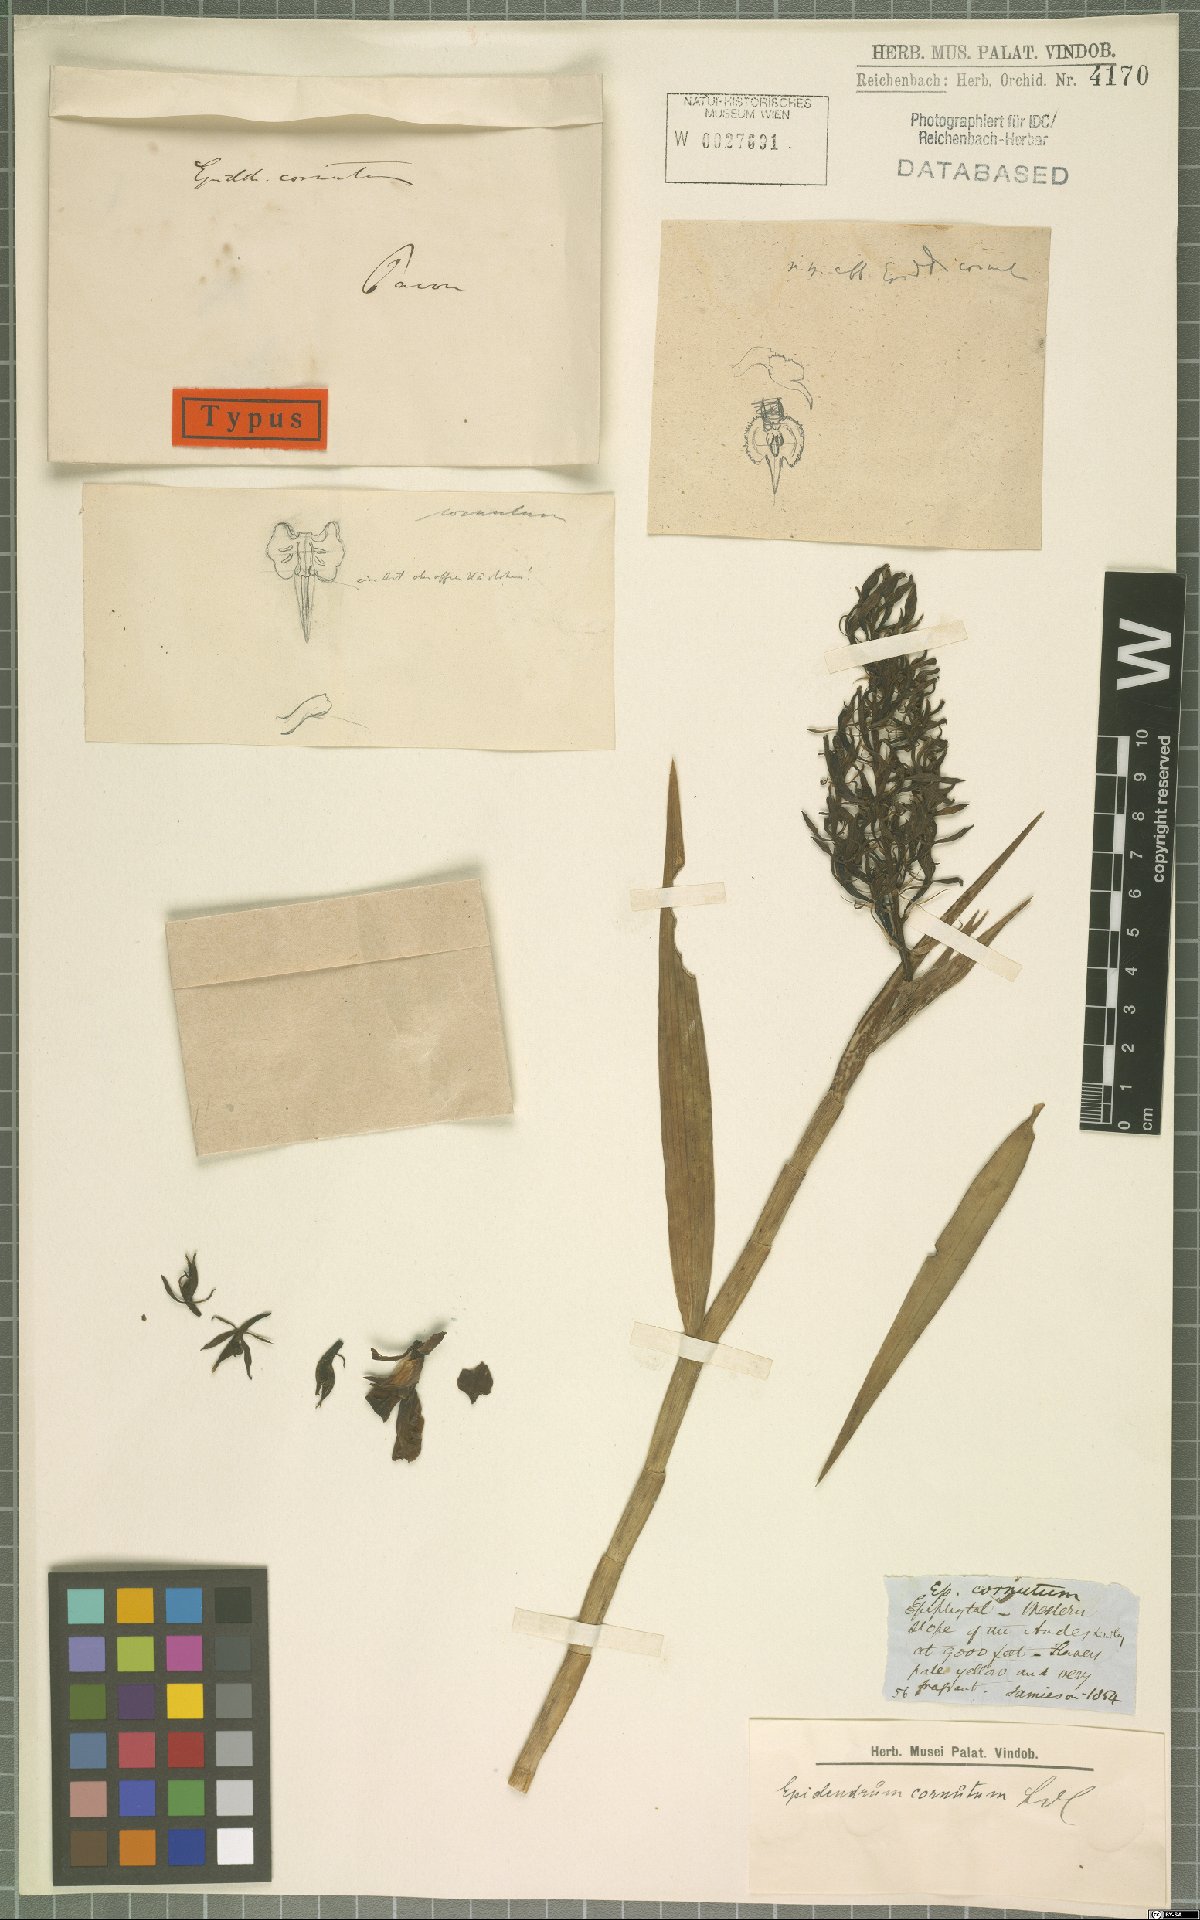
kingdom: Plantae
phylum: Tracheophyta
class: Liliopsida
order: Asparagales
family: Orchidaceae
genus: Epidendrum
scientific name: Epidendrum cornutum
